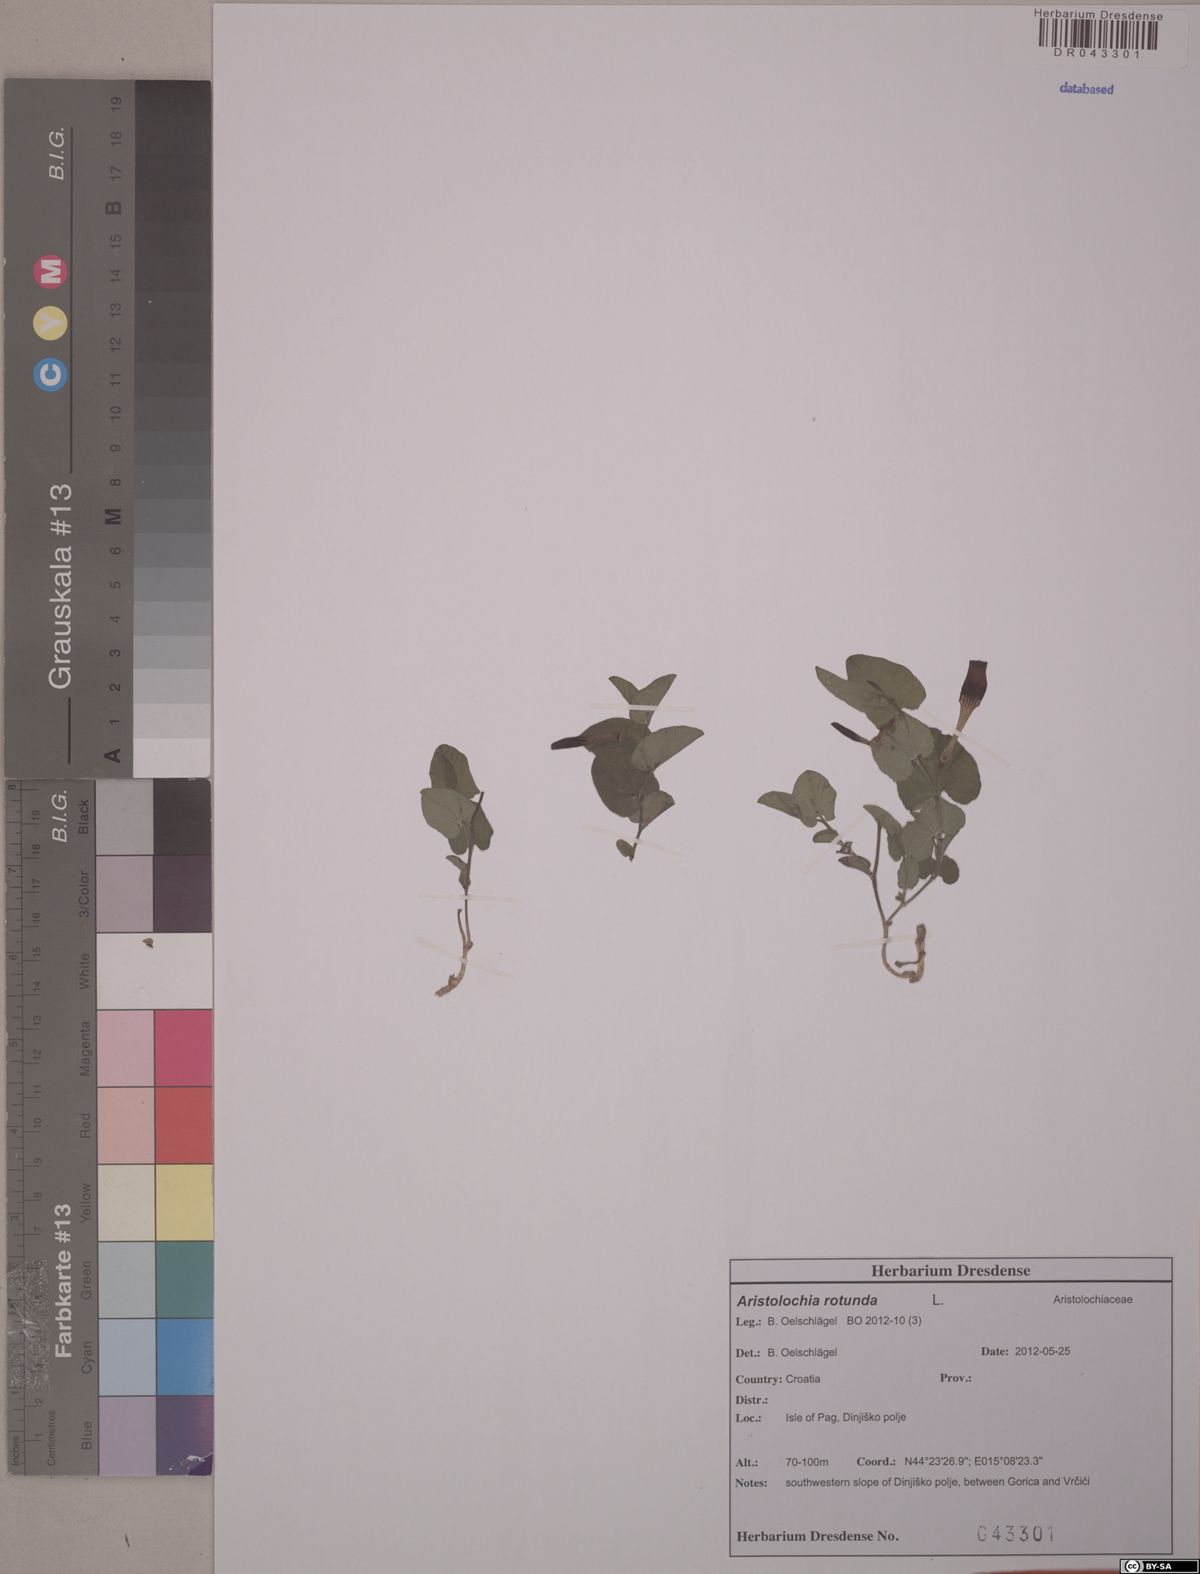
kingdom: Plantae
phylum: Tracheophyta
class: Magnoliopsida
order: Piperales
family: Aristolochiaceae
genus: Aristolochia
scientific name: Aristolochia rotunda
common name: Smearwort
